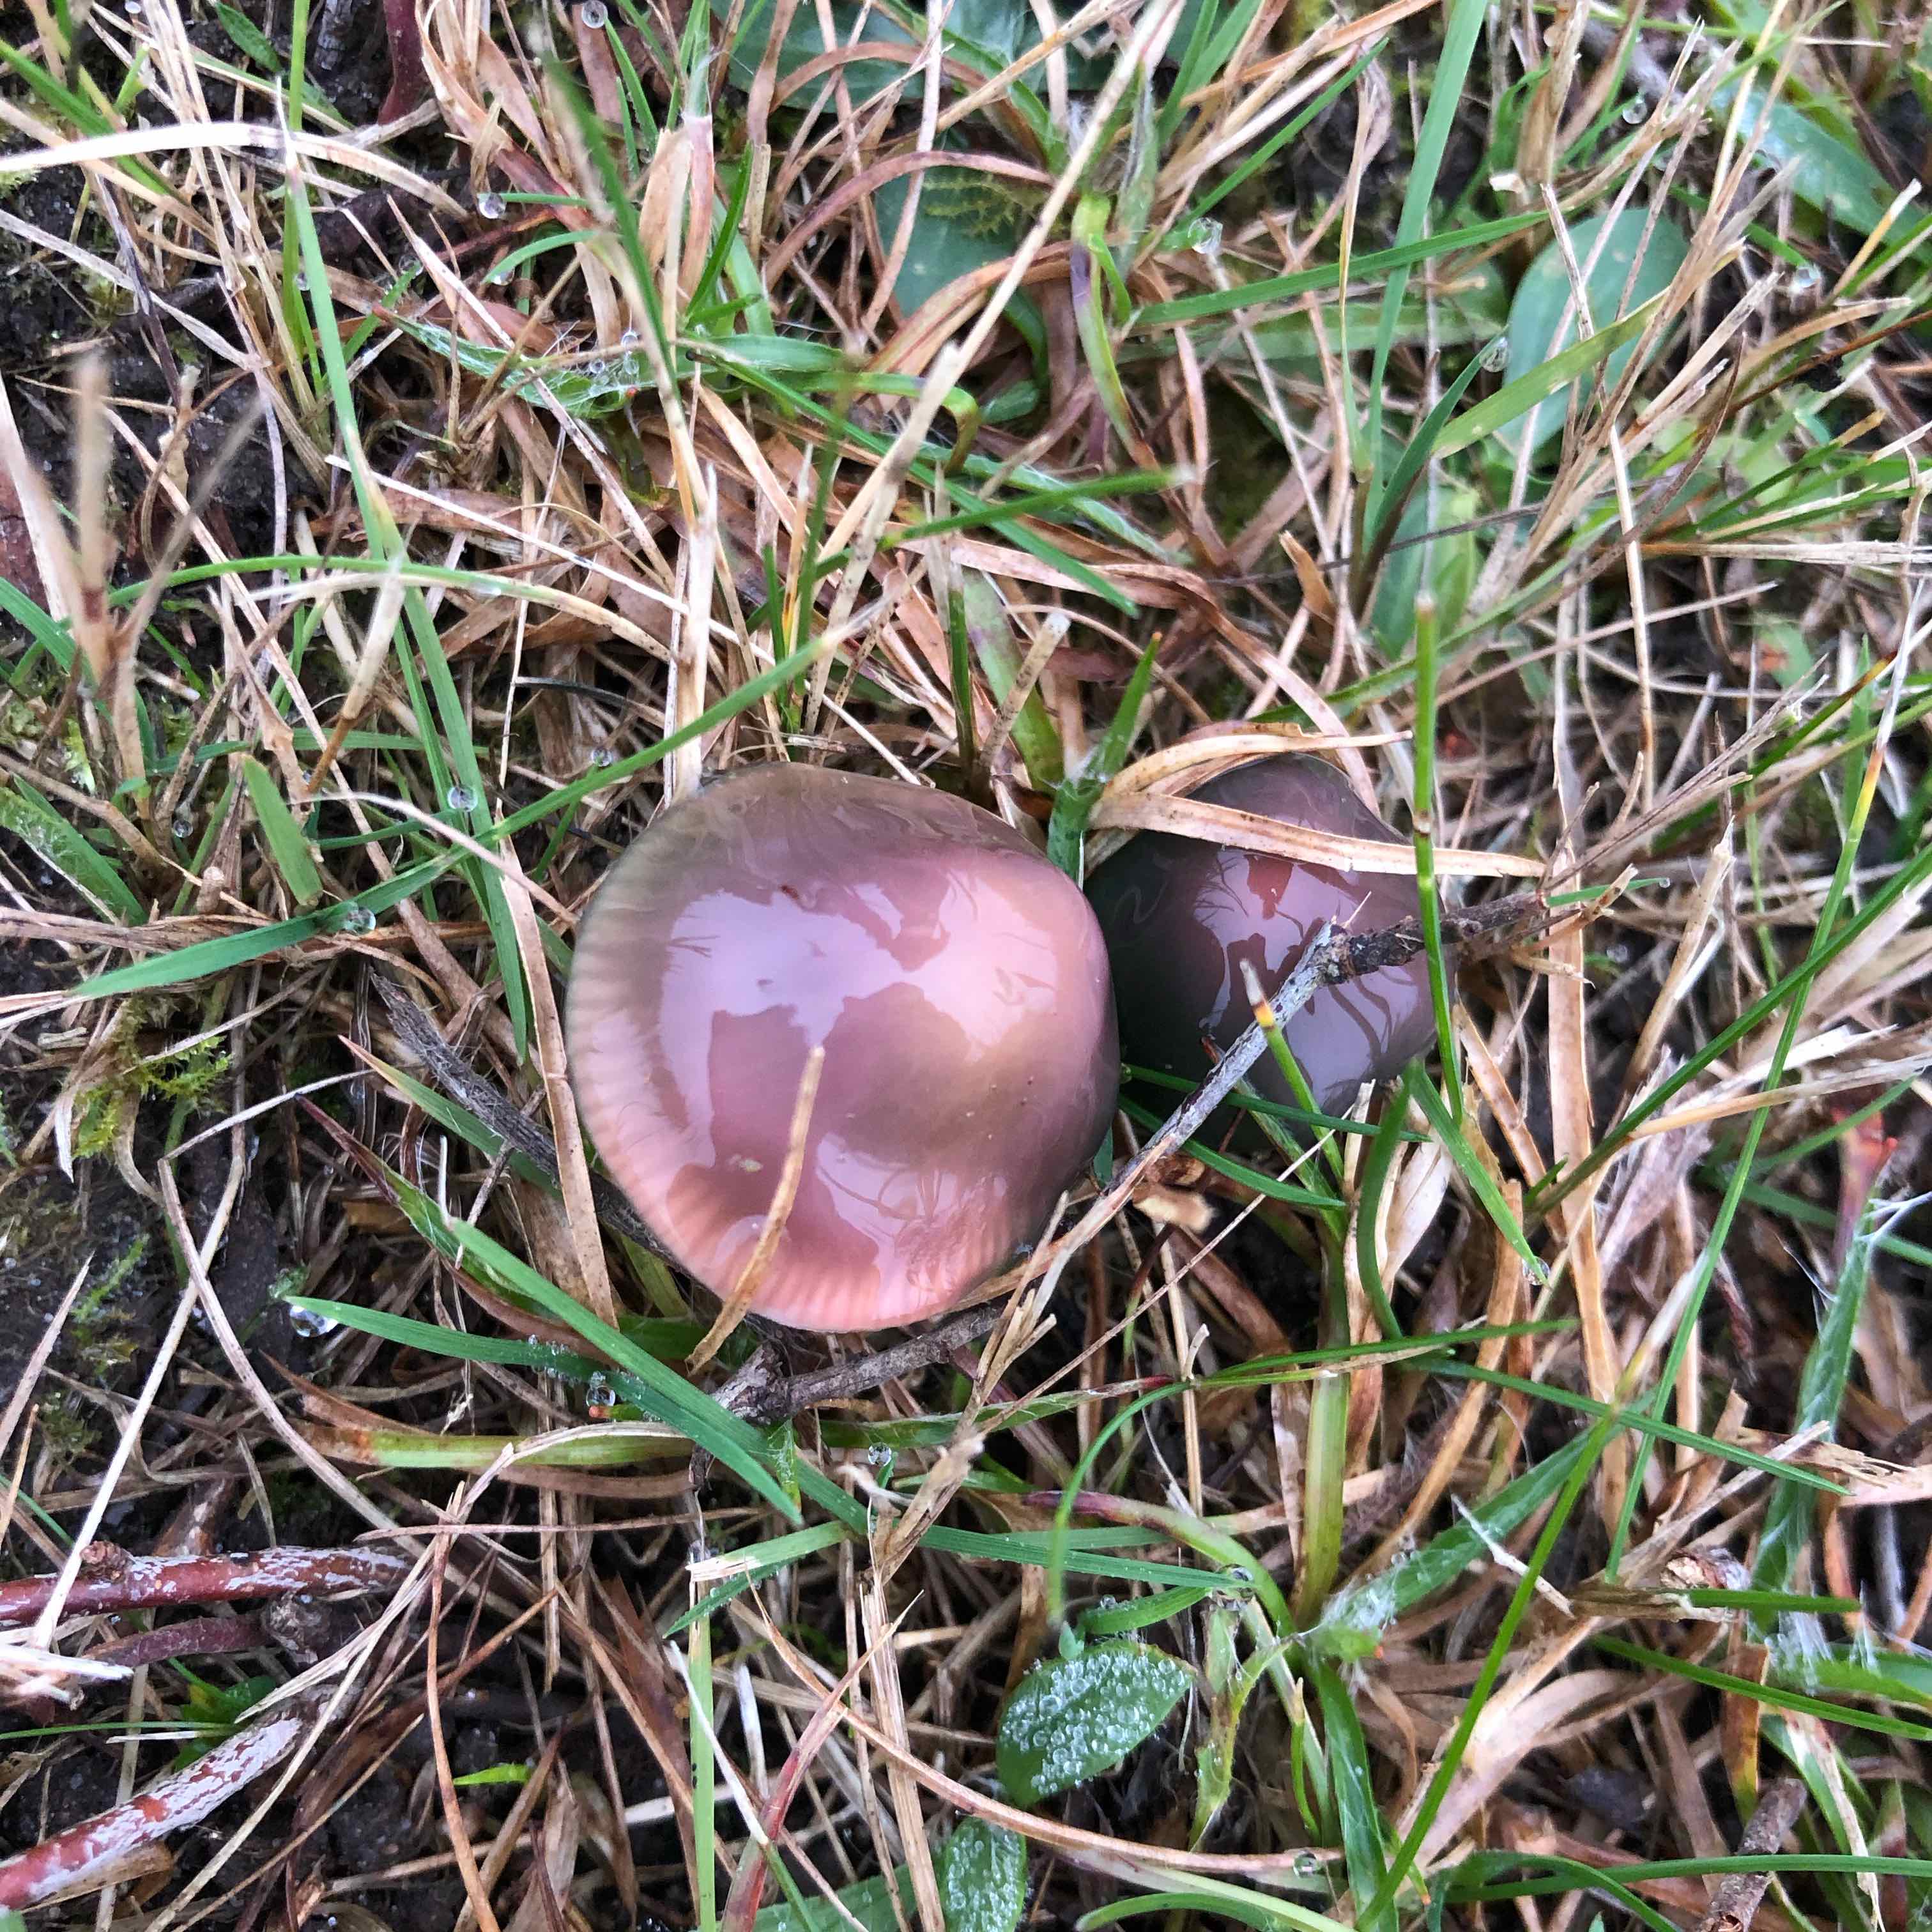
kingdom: Fungi
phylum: Basidiomycota
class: Agaricomycetes
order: Agaricales
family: Hygrophoraceae
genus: Gliophorus
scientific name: Gliophorus psittacinus
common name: papegøje-vokshat
